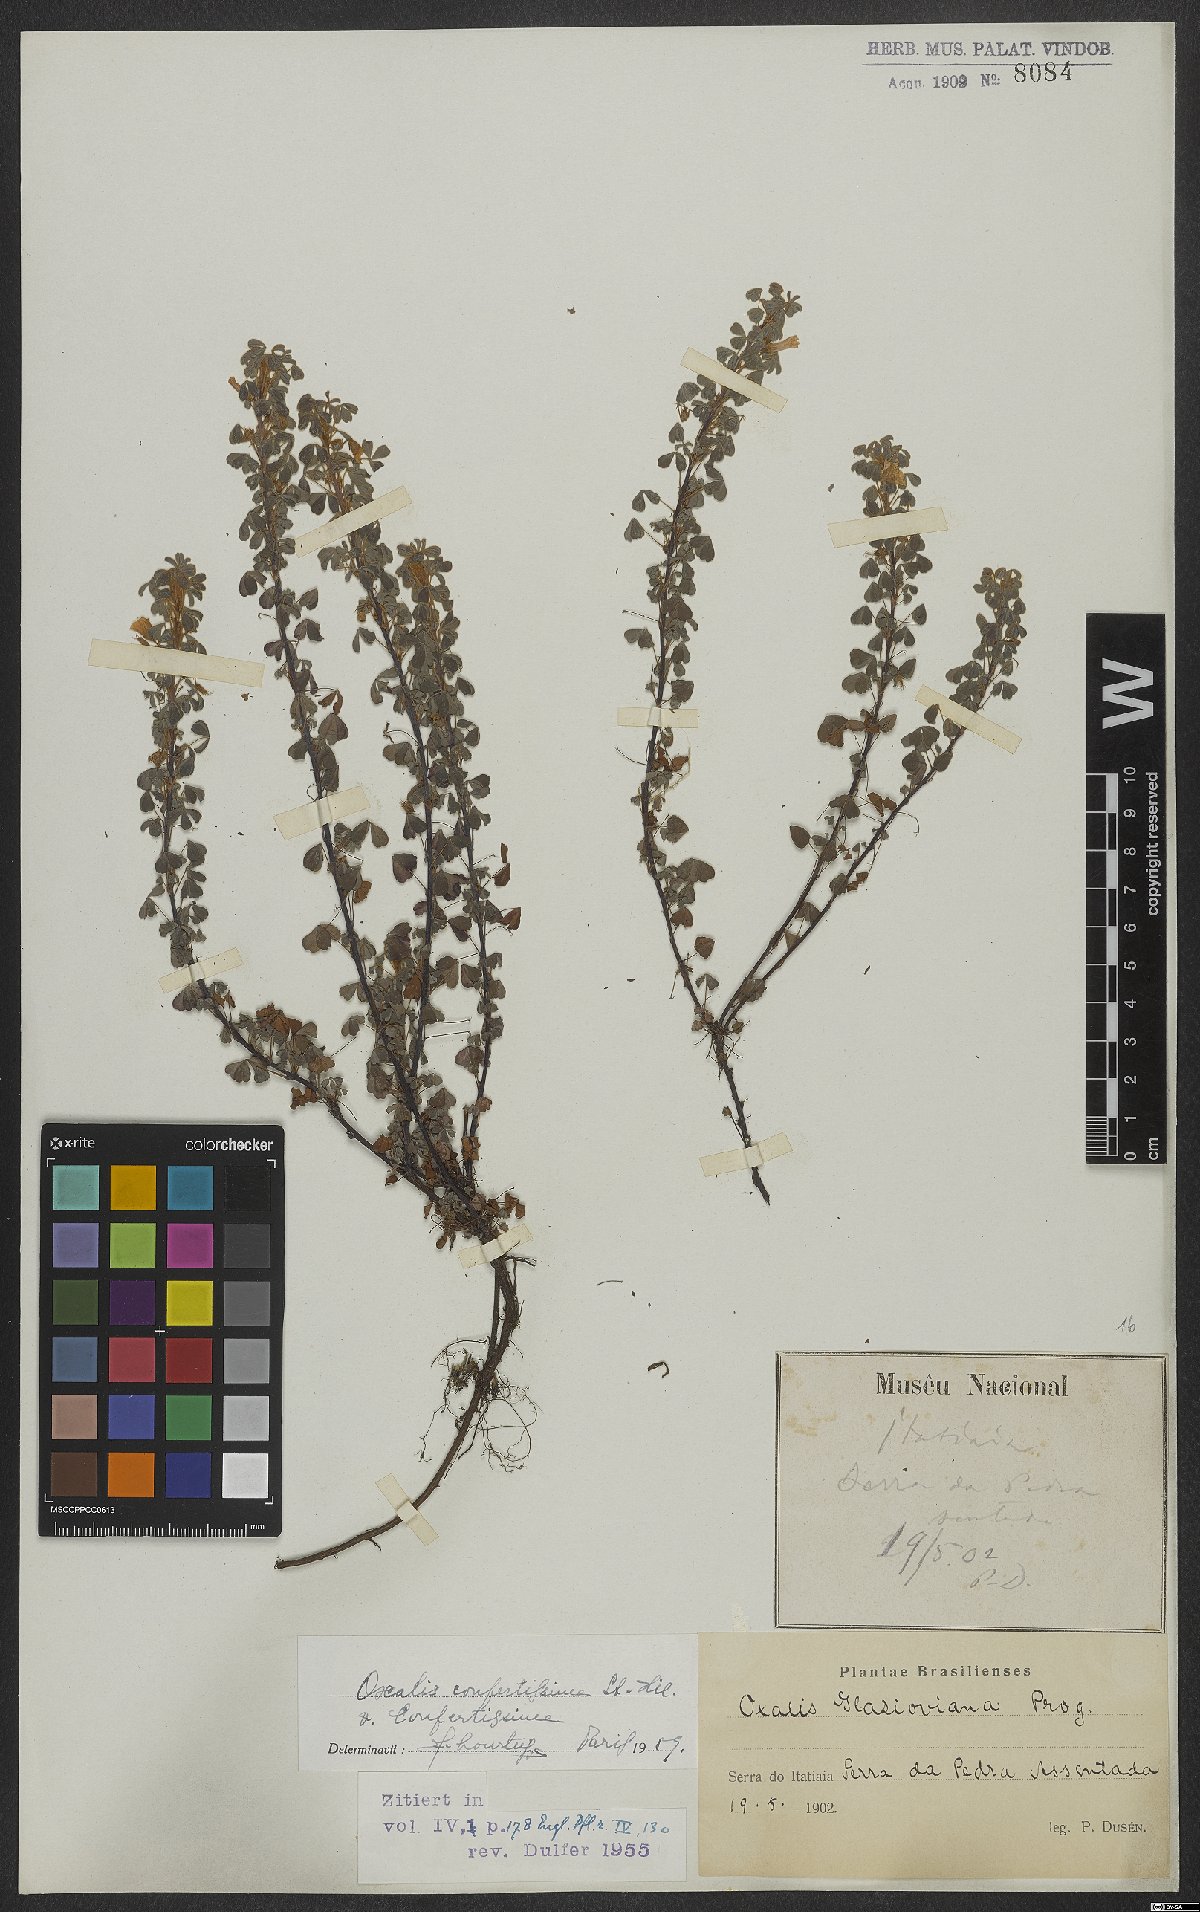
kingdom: Plantae
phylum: Tracheophyta
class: Magnoliopsida
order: Oxalidales
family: Oxalidaceae
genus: Oxalis
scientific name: Oxalis confertissima
